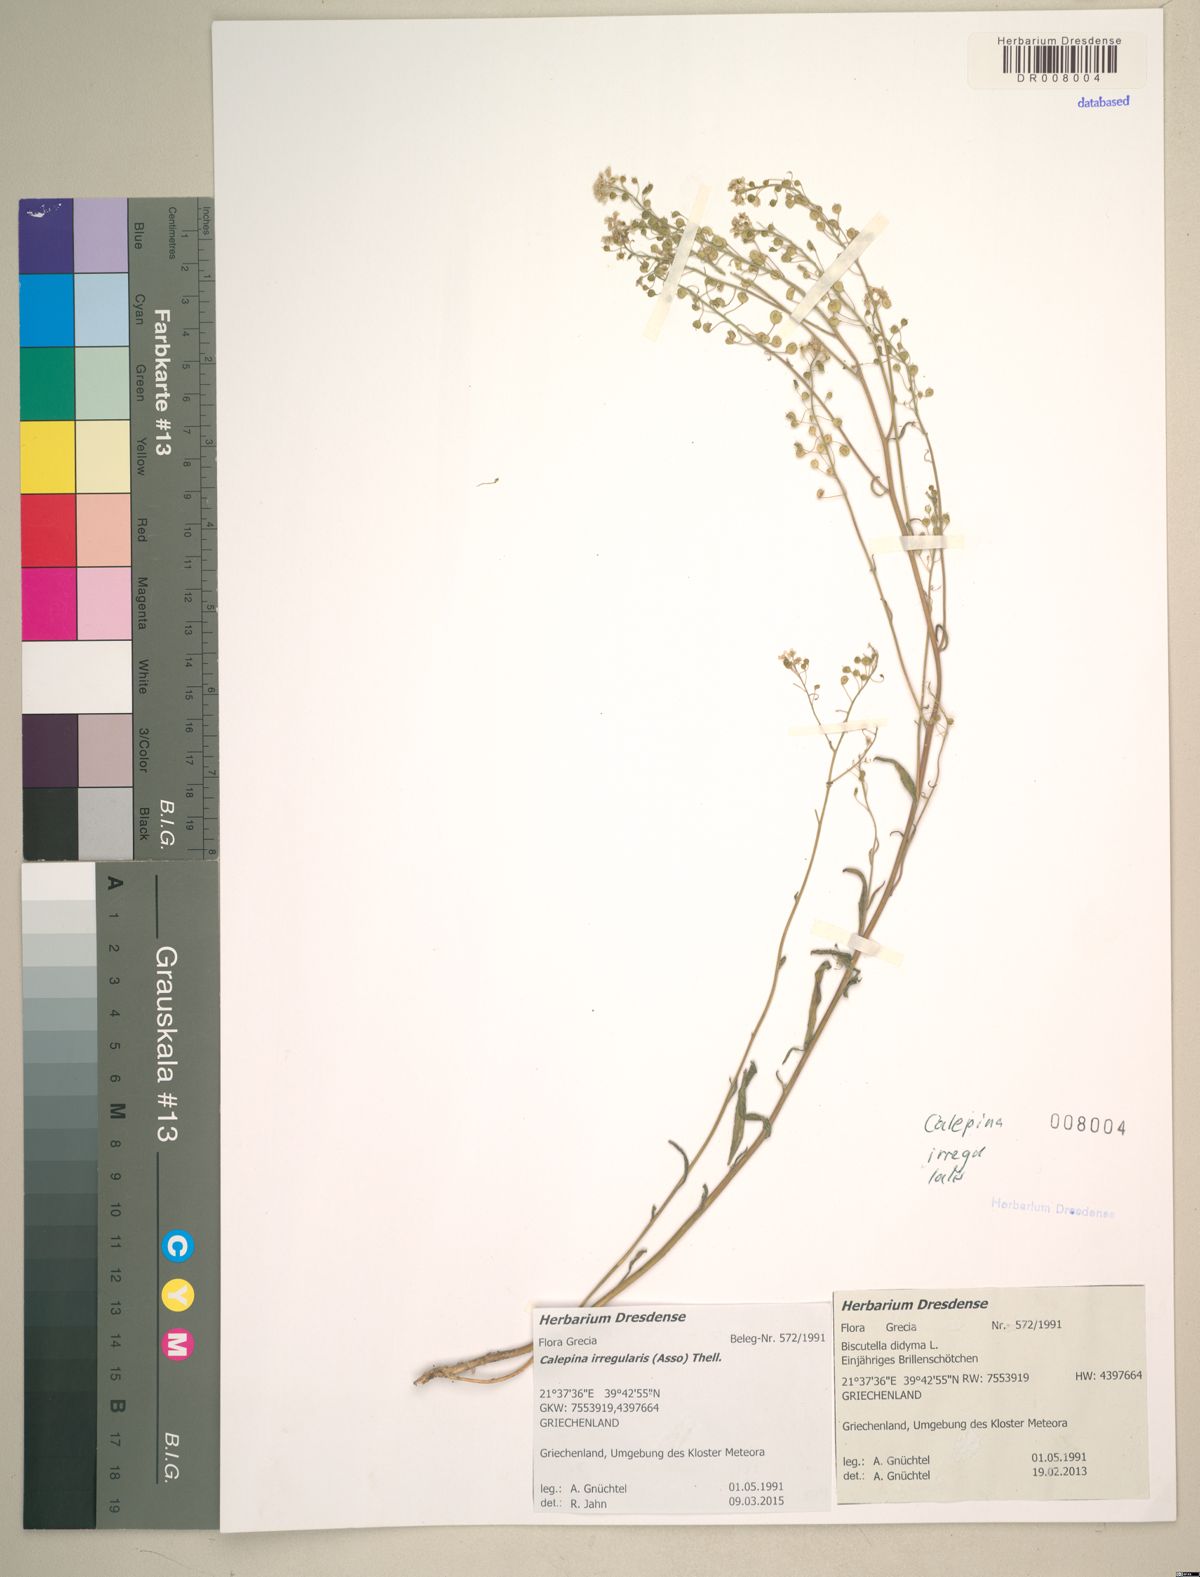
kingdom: Plantae
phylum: Tracheophyta
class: Magnoliopsida
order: Brassicales
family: Brassicaceae
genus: Calepina
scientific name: Calepina irregularis
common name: White ballmustard
